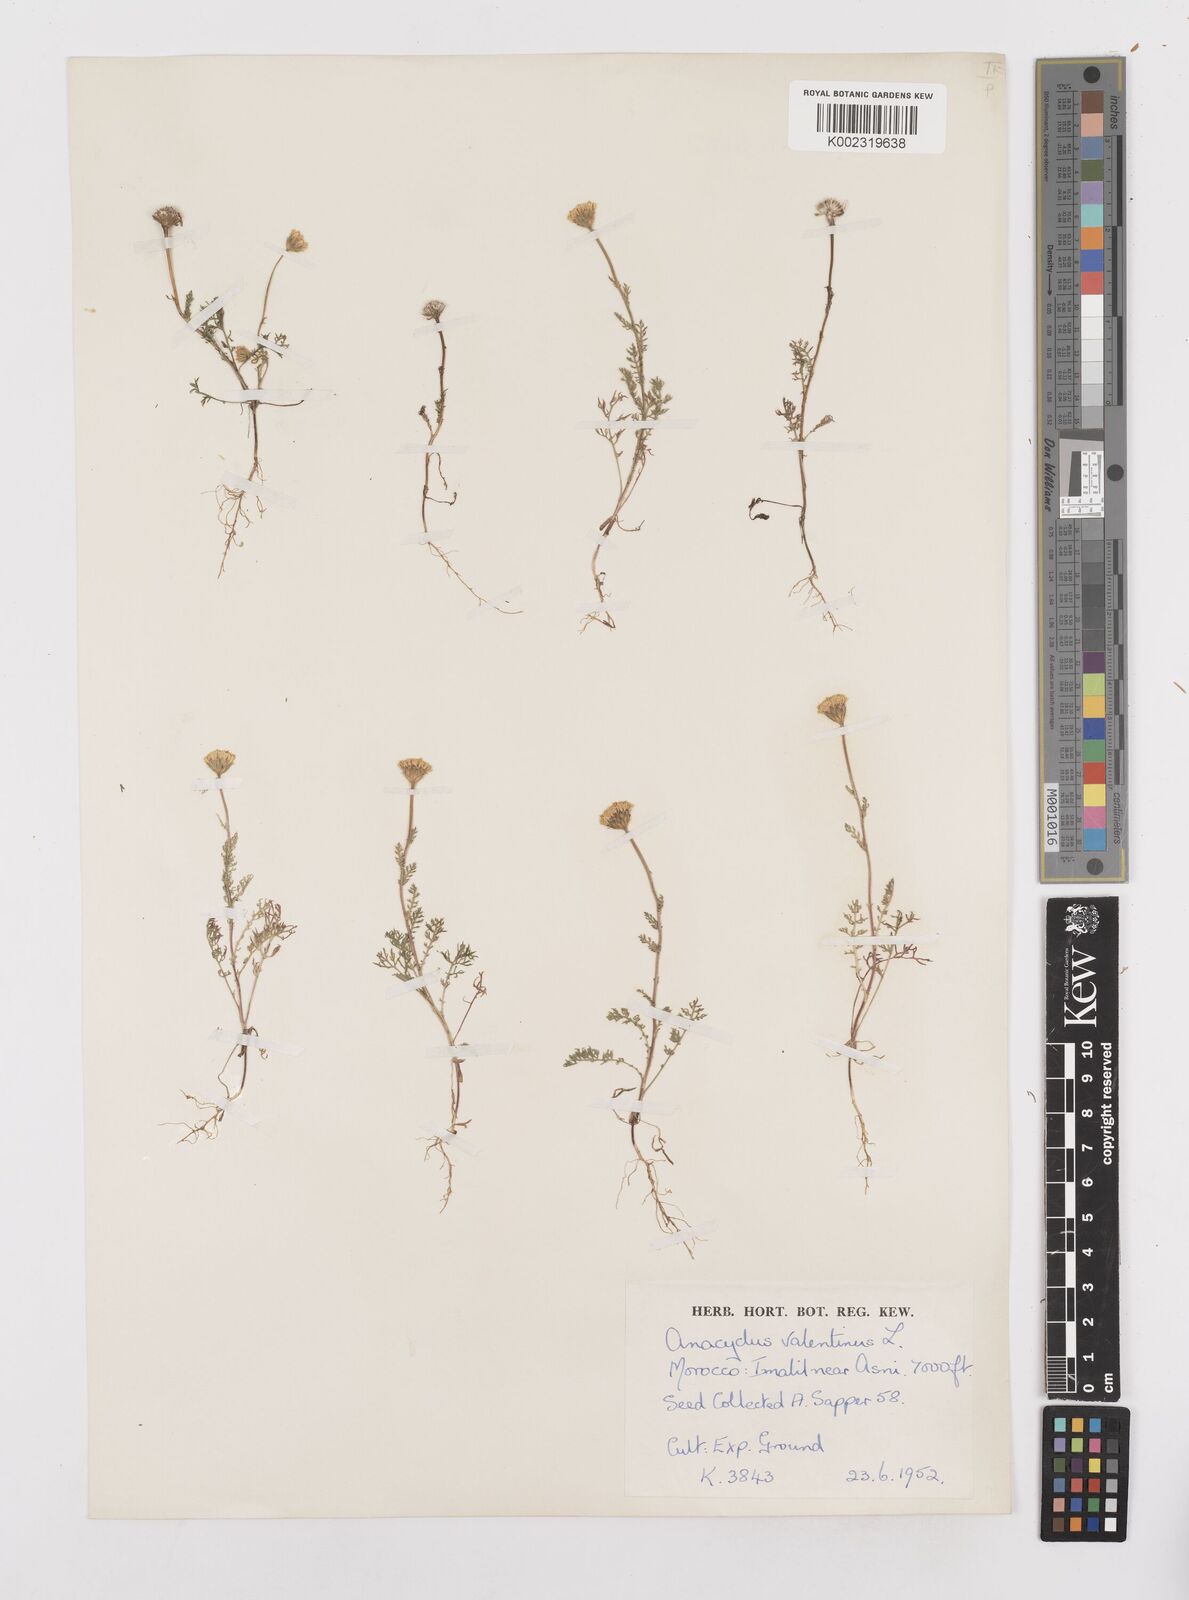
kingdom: Plantae
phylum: Tracheophyta
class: Magnoliopsida
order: Asterales
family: Asteraceae
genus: Anacyclus
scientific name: Anacyclus valentinus
